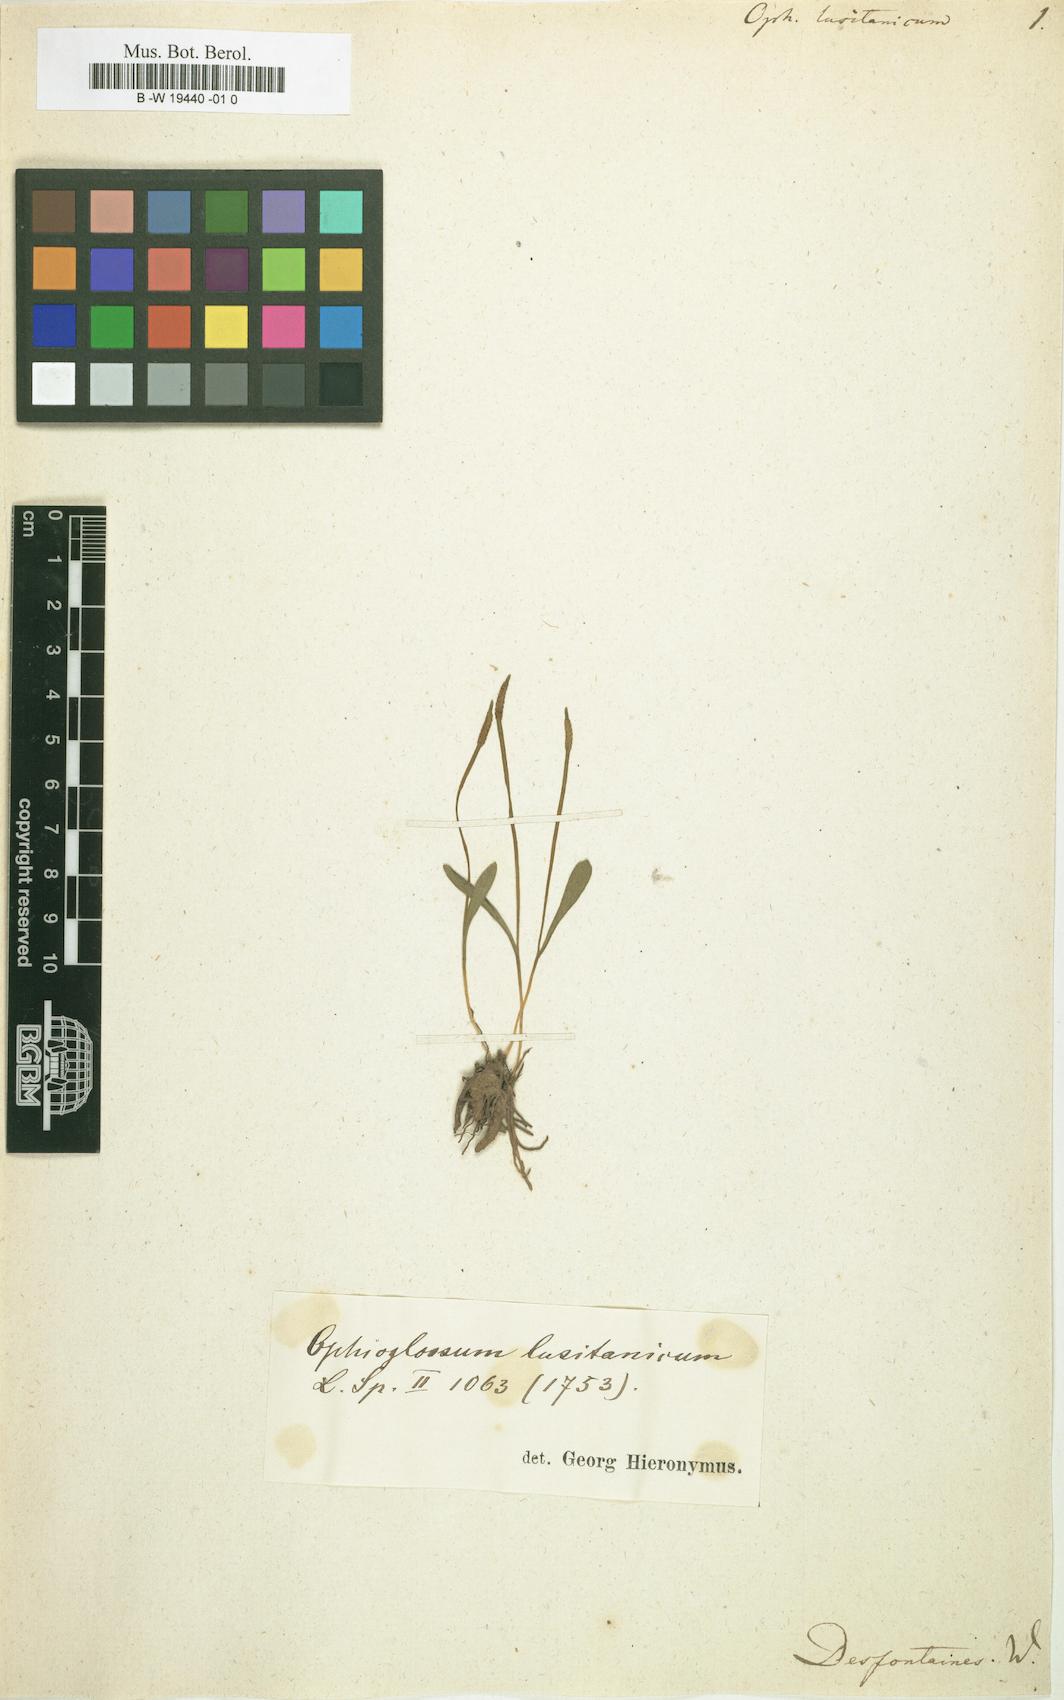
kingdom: Plantae
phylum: Tracheophyta
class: Polypodiopsida
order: Ophioglossales
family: Ophioglossaceae
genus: Ophioglossum
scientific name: Ophioglossum lusitanicum
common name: Least adder's-tongue
